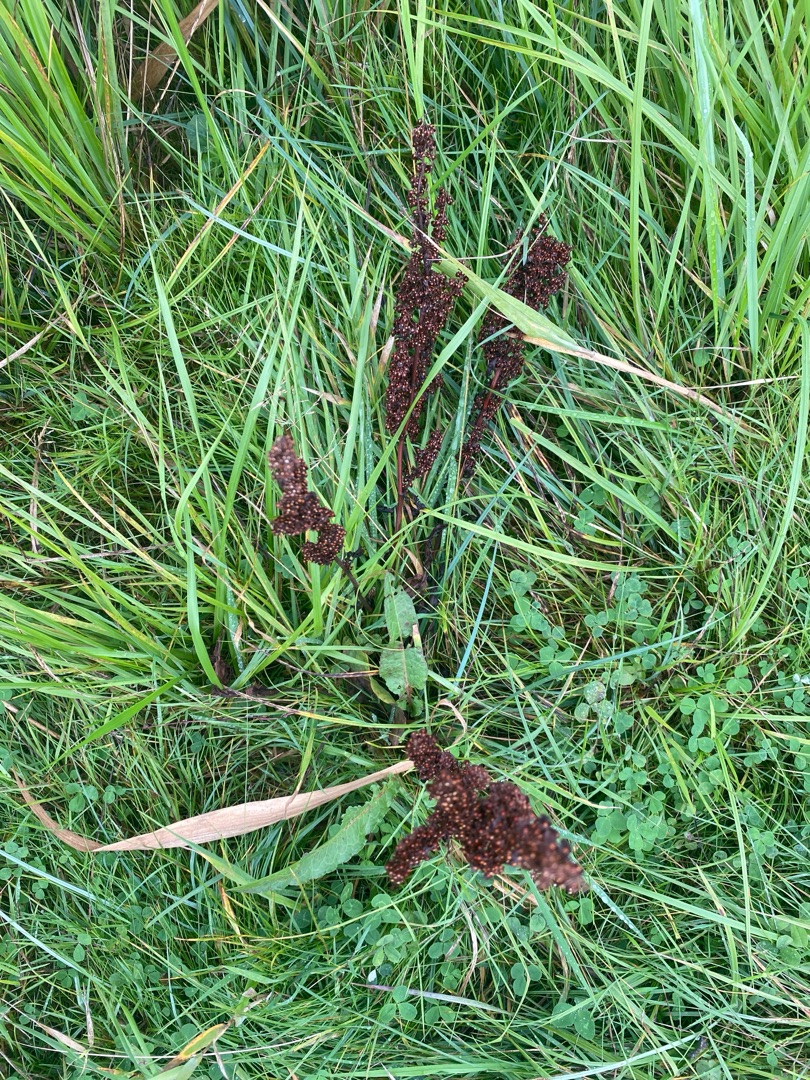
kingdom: Plantae
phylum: Tracheophyta
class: Magnoliopsida
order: Caryophyllales
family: Polygonaceae
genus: Rumex
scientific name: Rumex crispus
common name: Kruset skræppe
